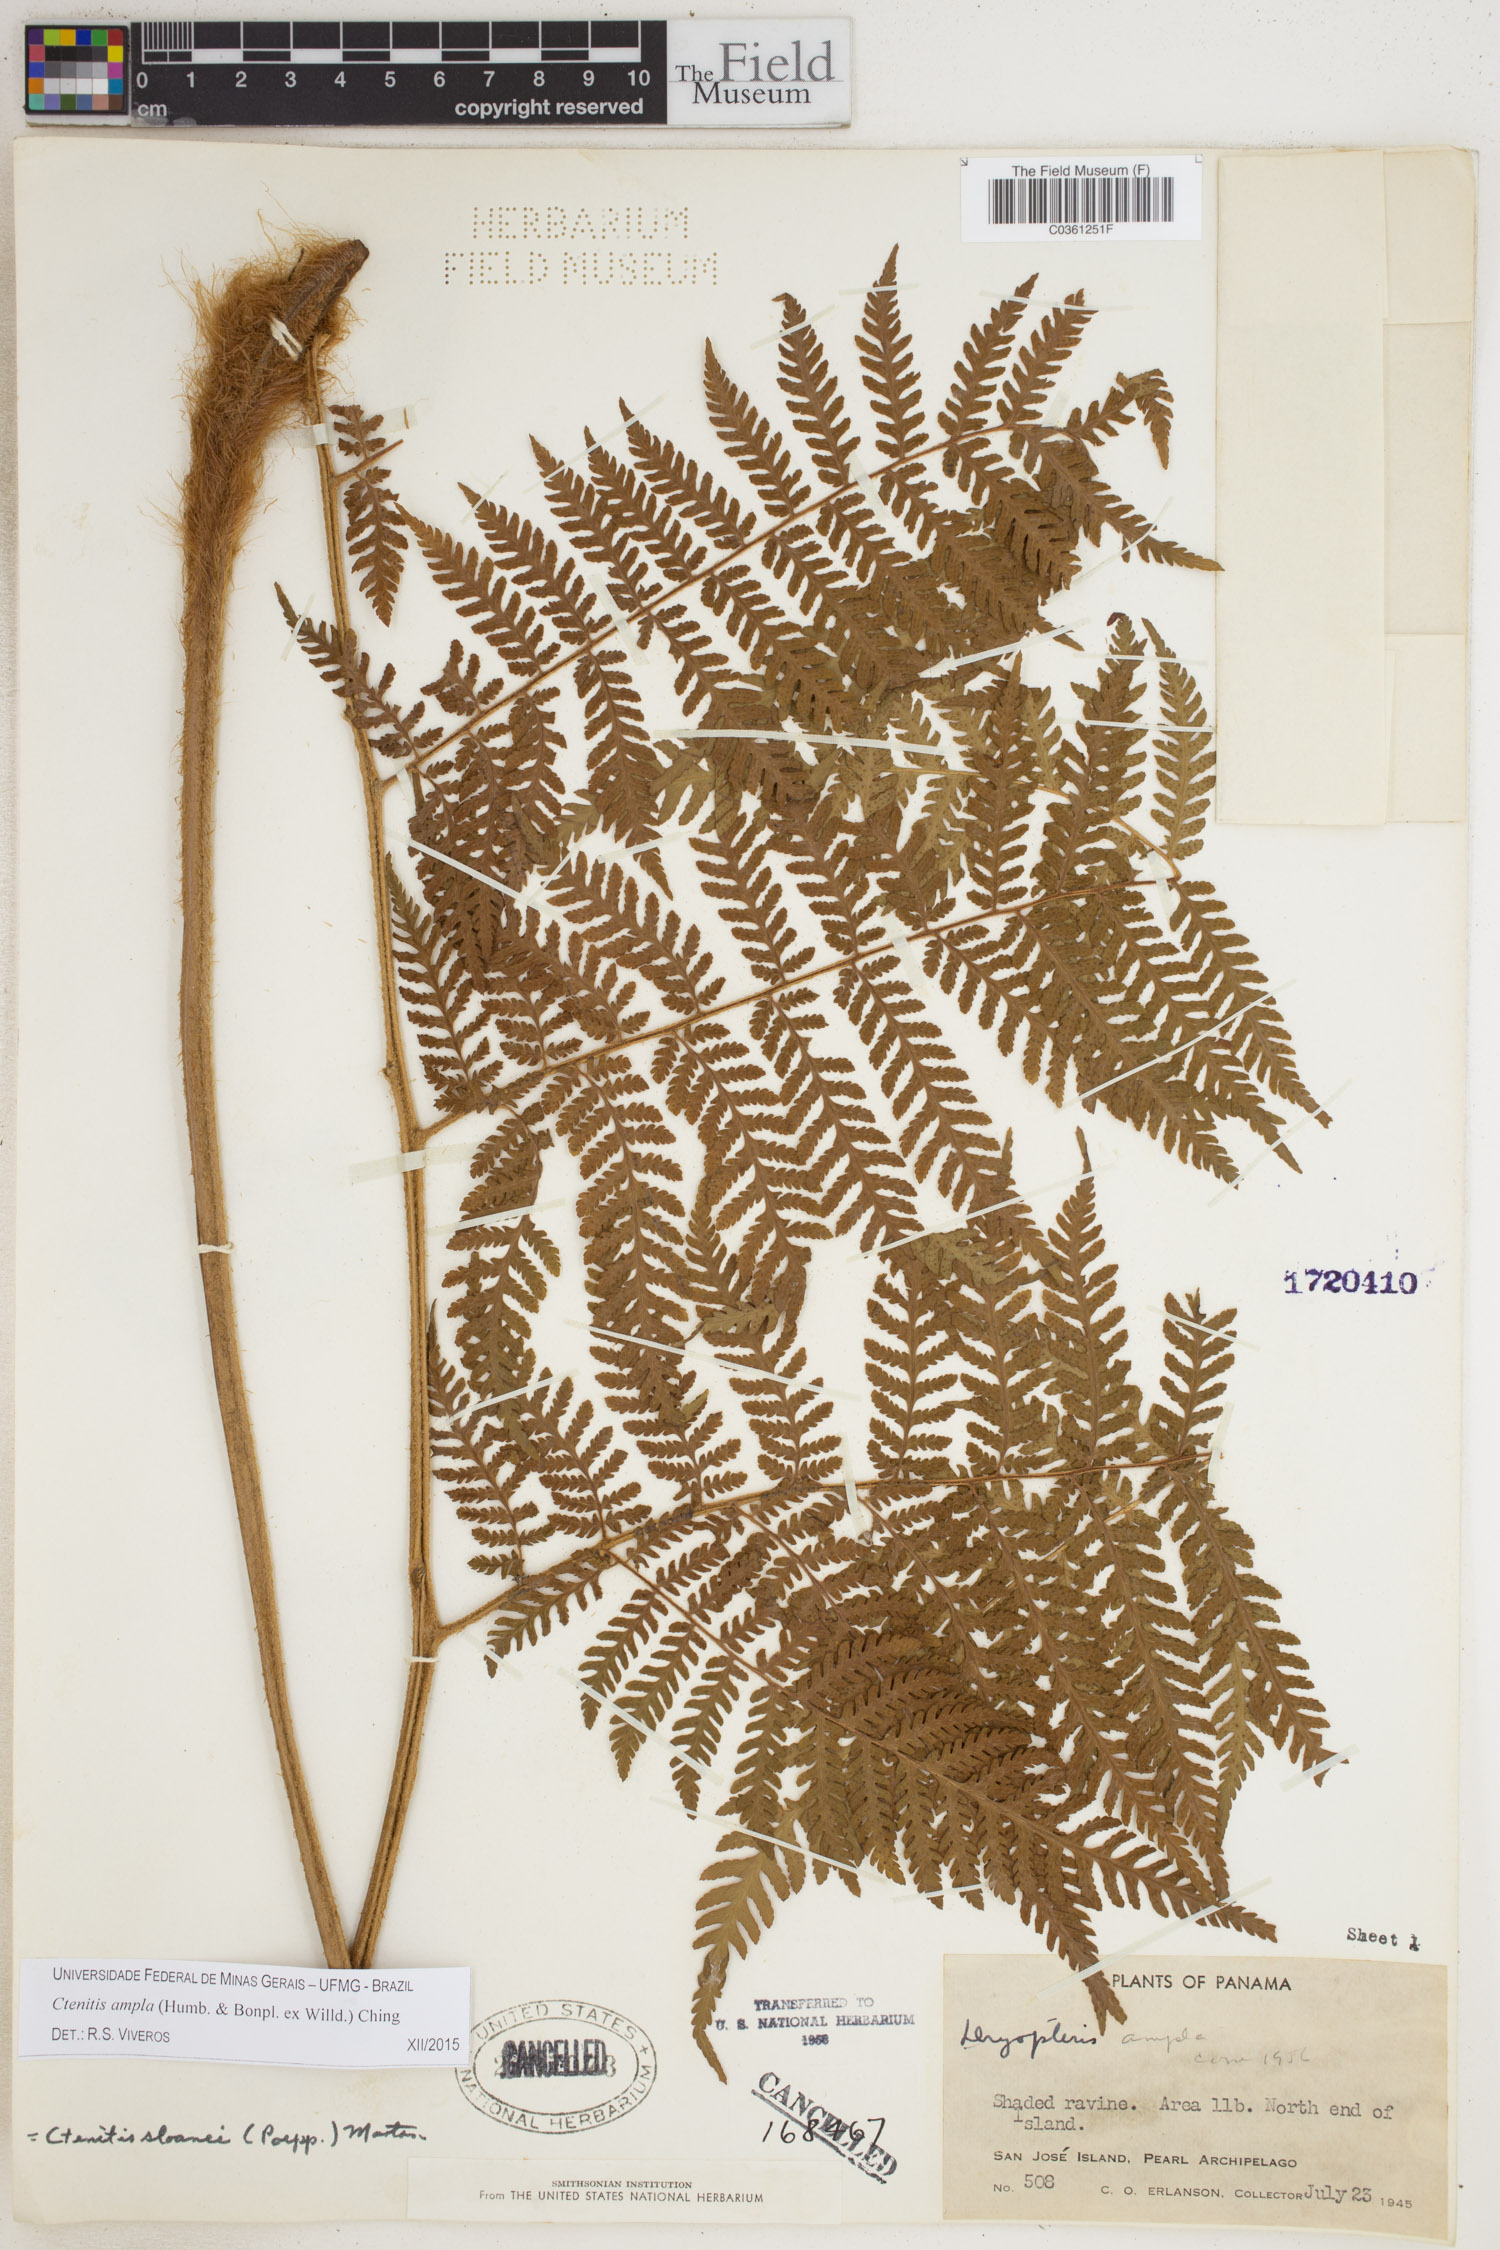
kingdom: Plantae
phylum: Tracheophyta
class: Polypodiopsida
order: Polypodiales
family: Dryopteridaceae
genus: Ctenitis
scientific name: Ctenitis sloanei
